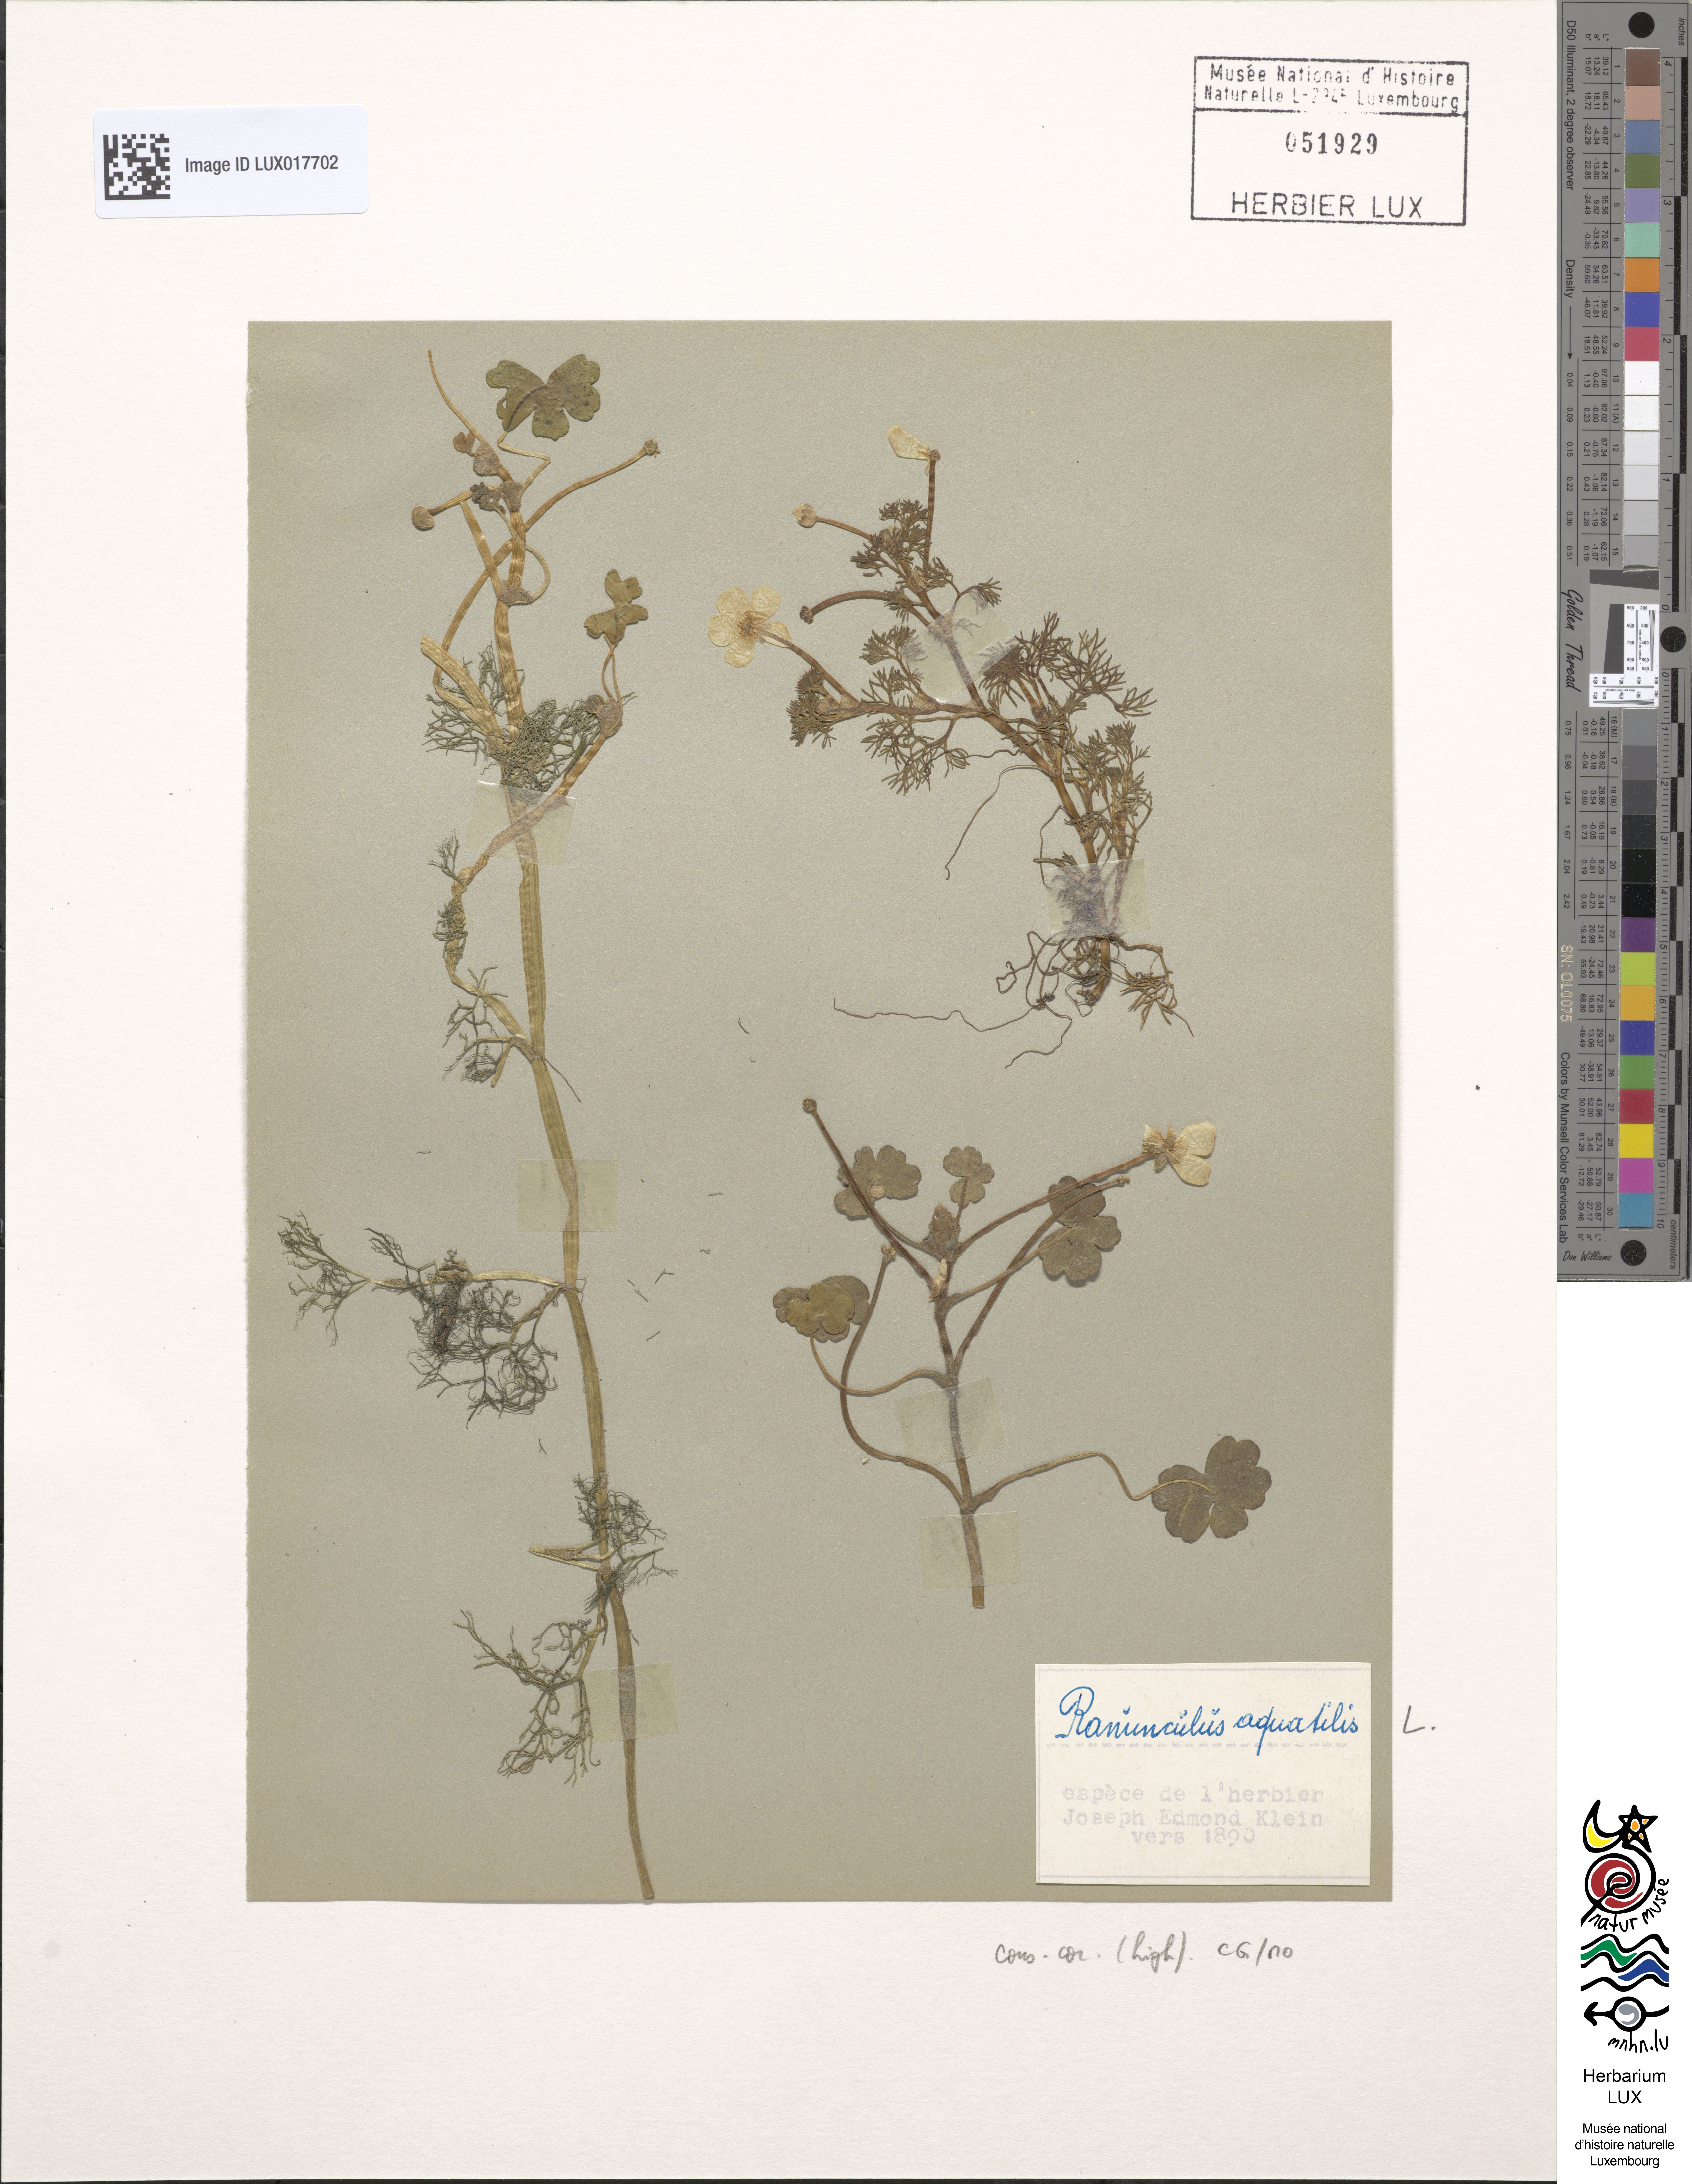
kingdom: Plantae
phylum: Tracheophyta
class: Magnoliopsida
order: Ranunculales
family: Ranunculaceae
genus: Ranunculus
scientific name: Ranunculus aquatilis
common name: Common water-crowfoot
